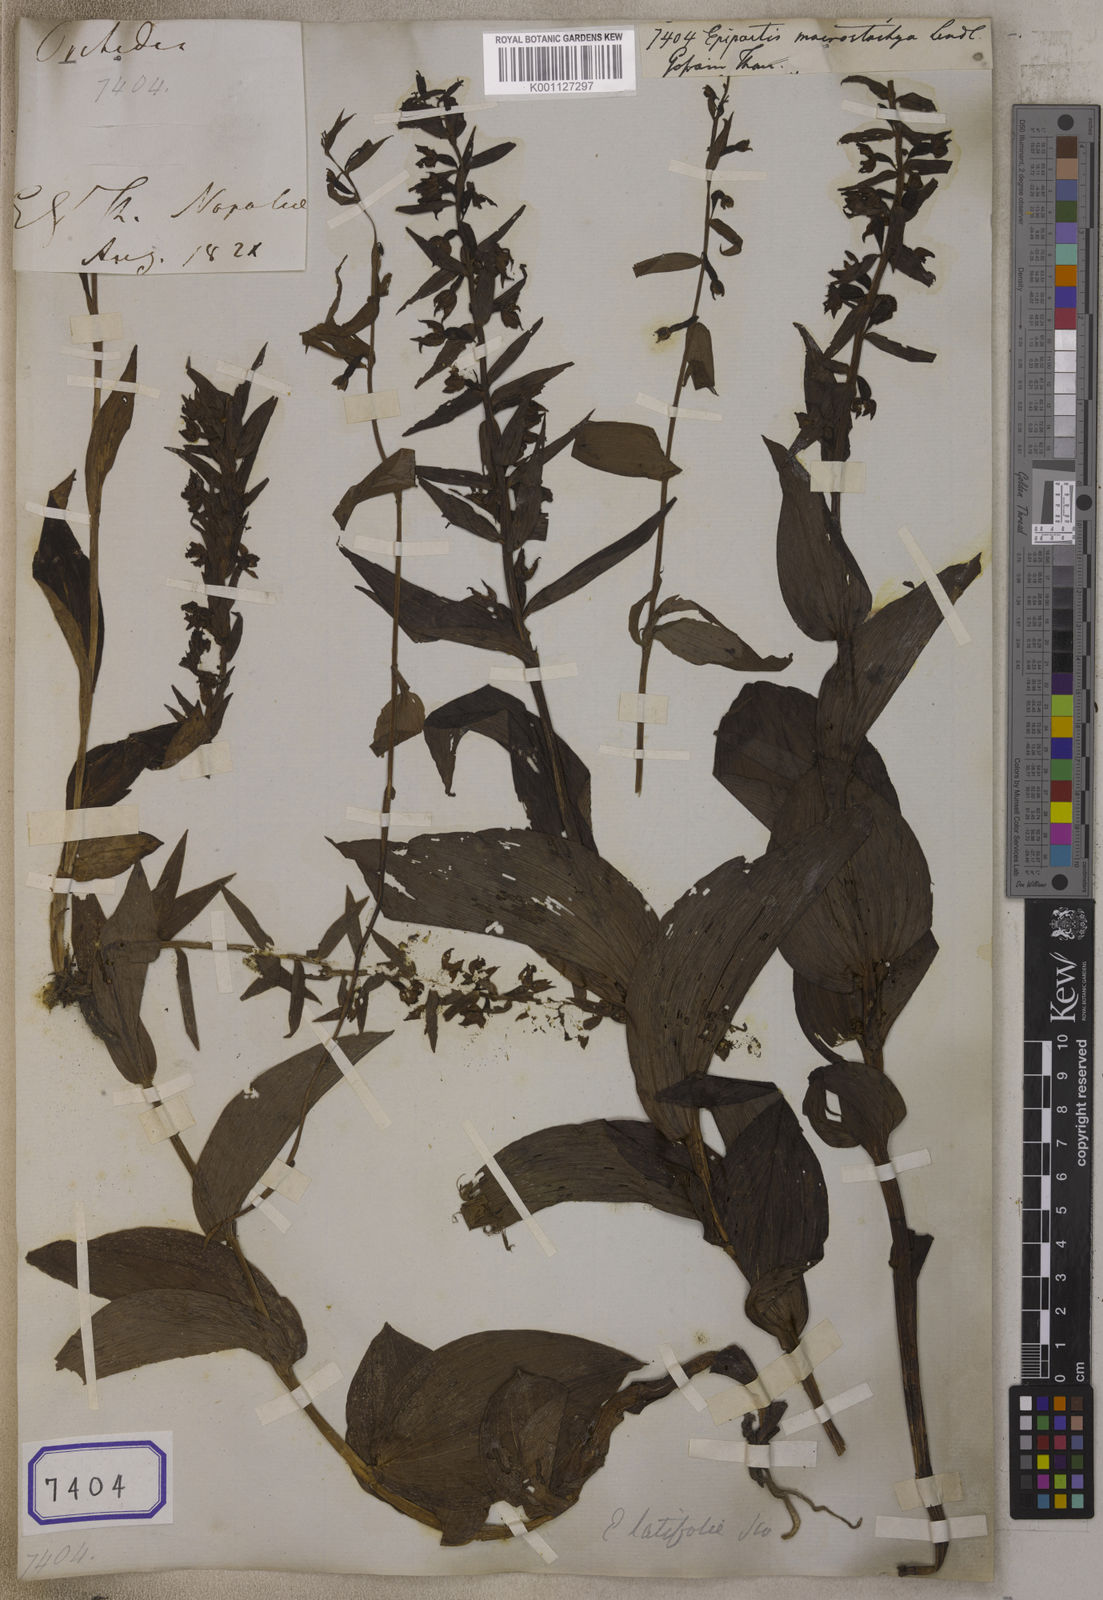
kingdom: Plantae
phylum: Tracheophyta
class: Liliopsida
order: Asparagales
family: Orchidaceae
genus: Epipactis
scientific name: Epipactis helleborine
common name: Broad-leaved helleborine
